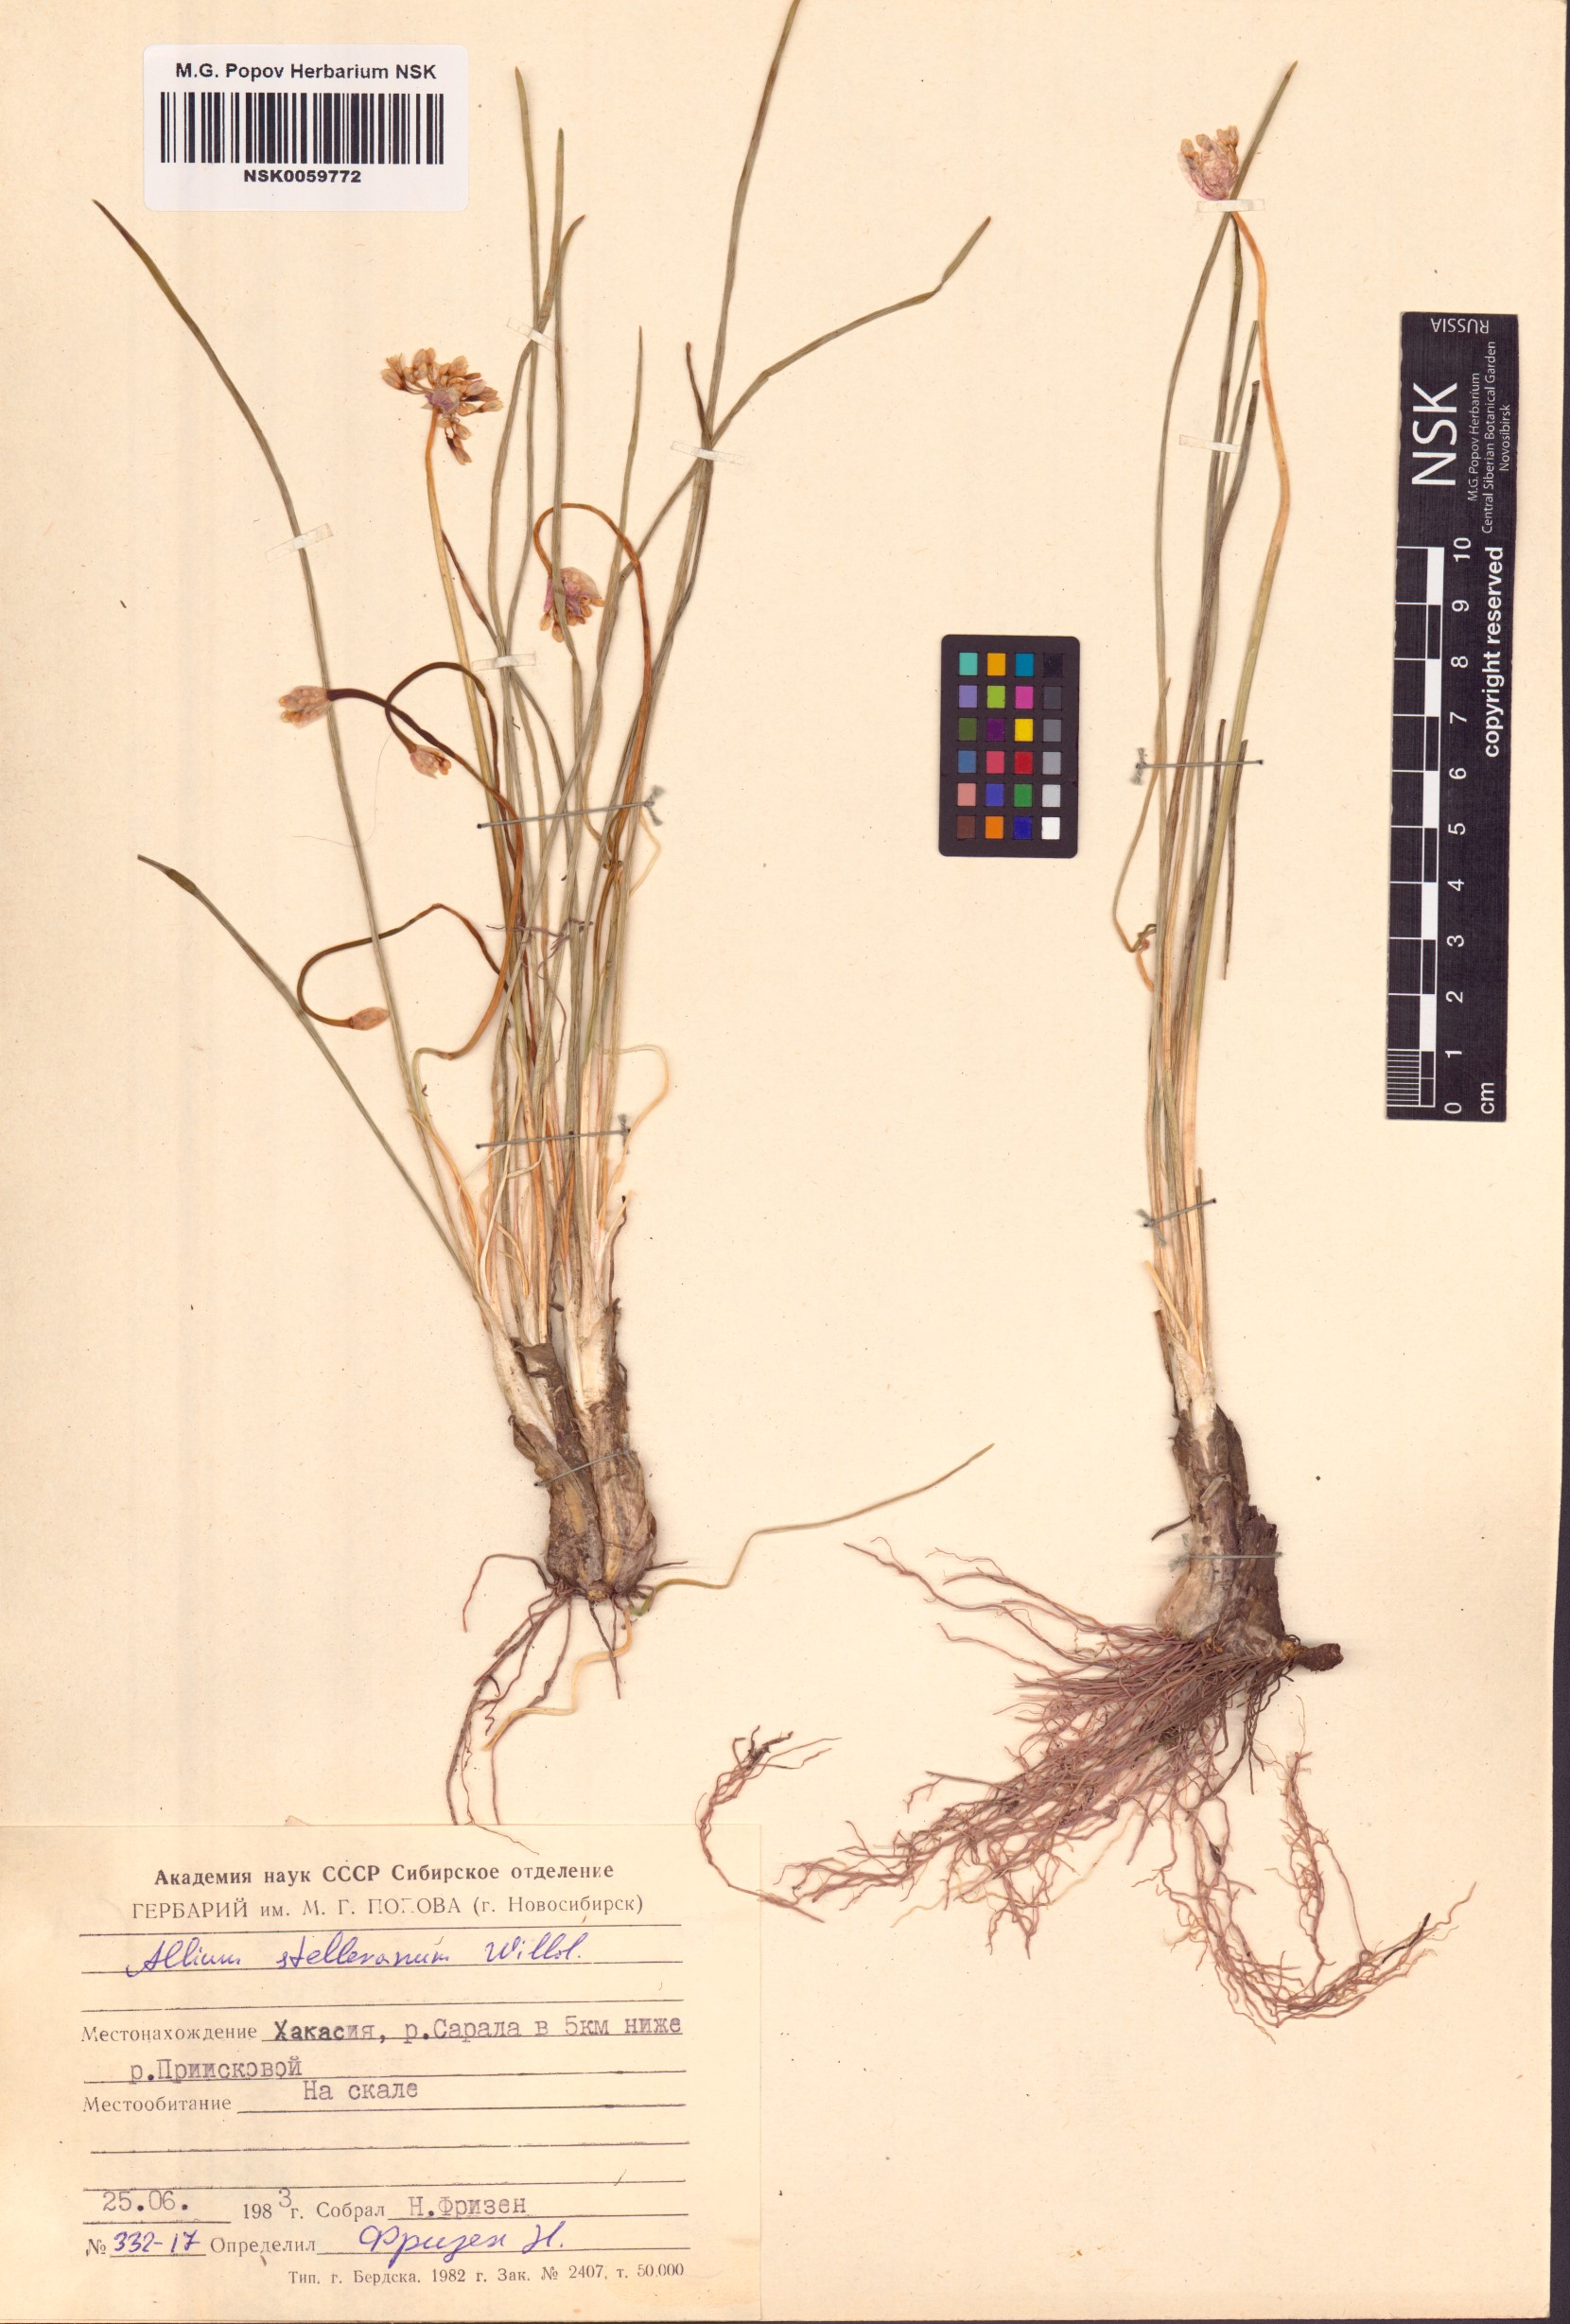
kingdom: Plantae
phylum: Tracheophyta
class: Liliopsida
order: Asparagales
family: Amaryllidaceae
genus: Allium
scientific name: Allium stellerianum
